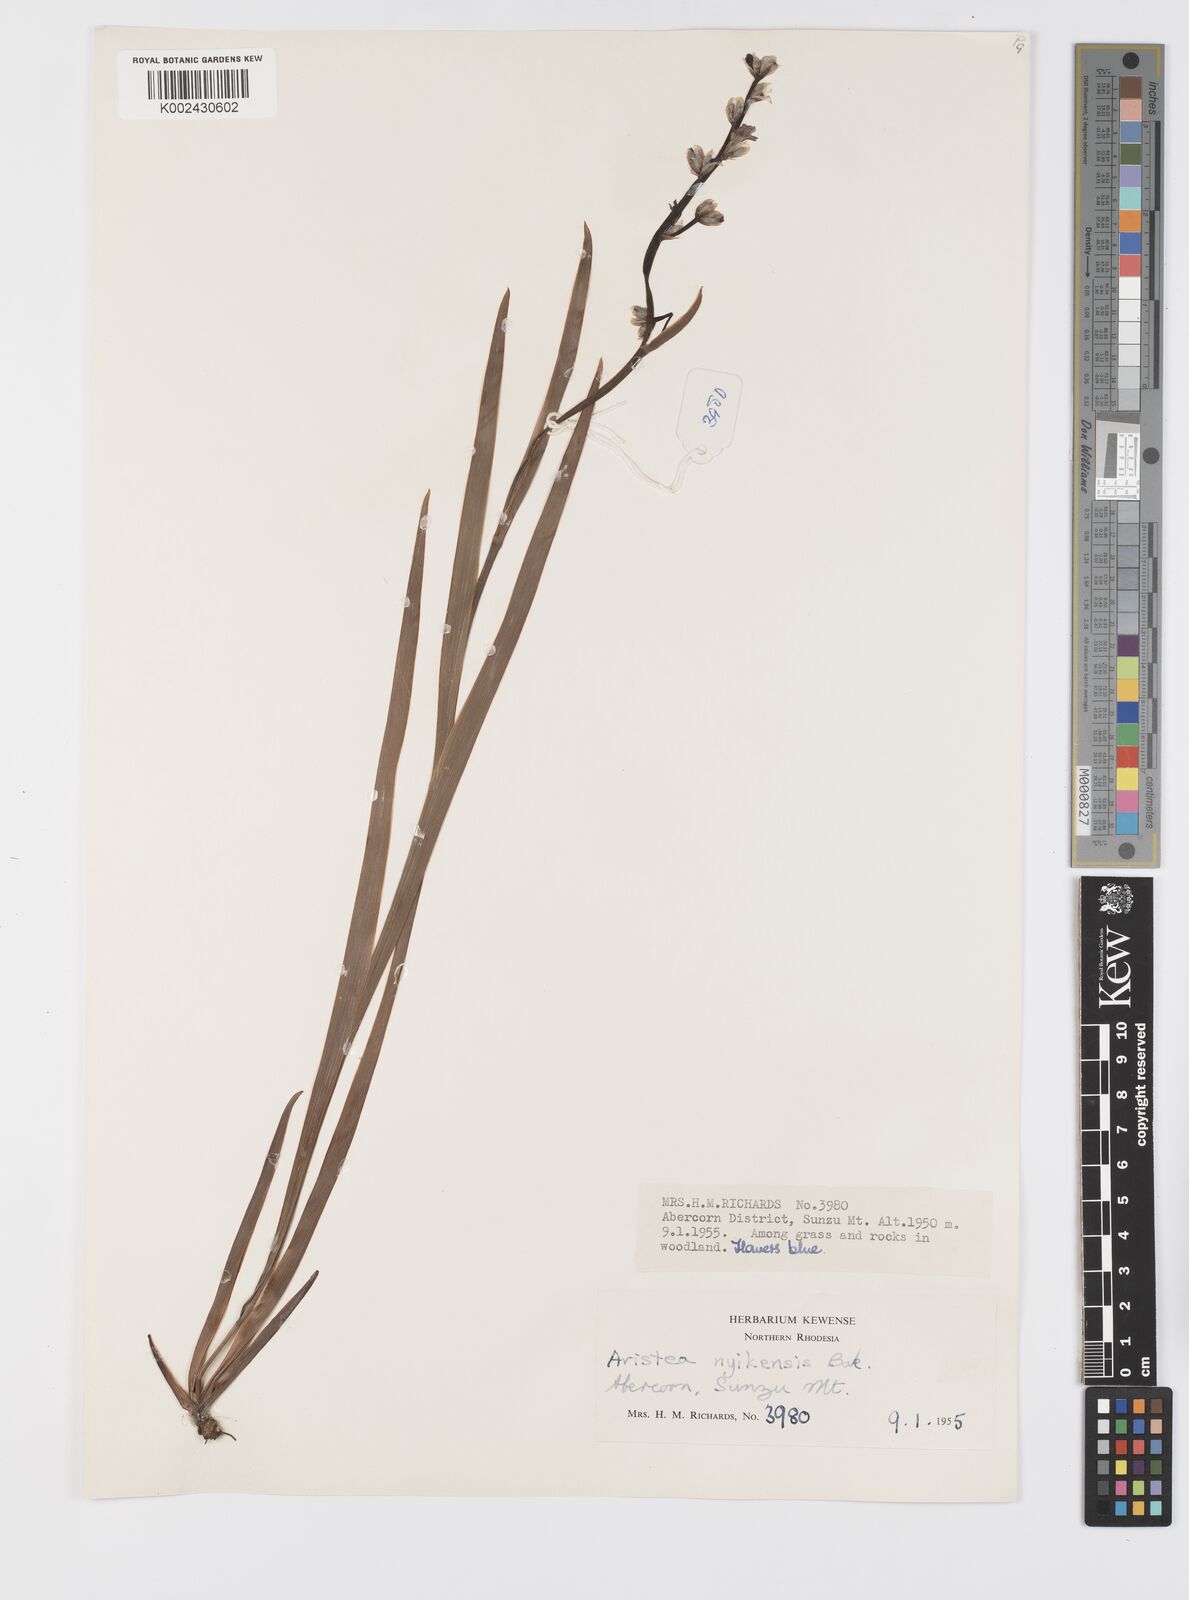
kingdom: Plantae
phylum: Tracheophyta
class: Liliopsida
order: Asparagales
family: Iridaceae
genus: Aristea
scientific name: Aristea nyikensis
